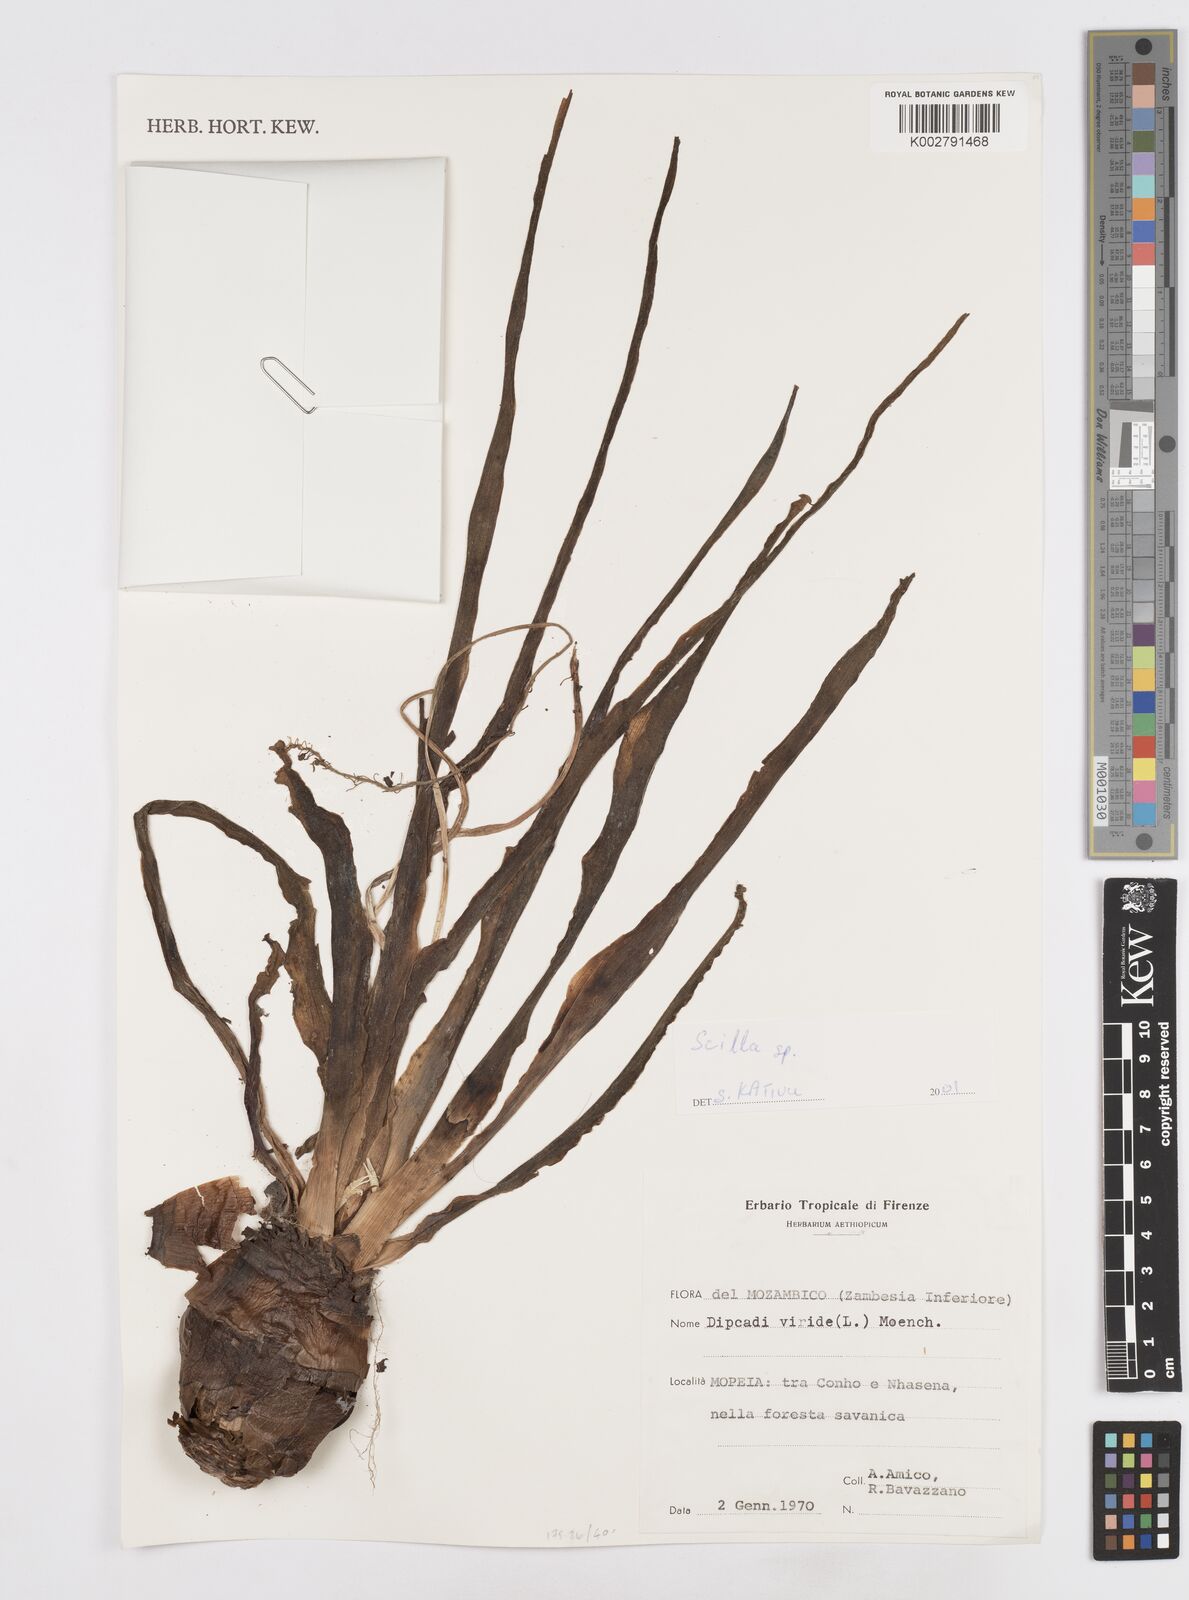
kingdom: Plantae
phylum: Tracheophyta
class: Liliopsida
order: Asparagales
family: Asparagaceae
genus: Scilla
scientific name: Scilla
